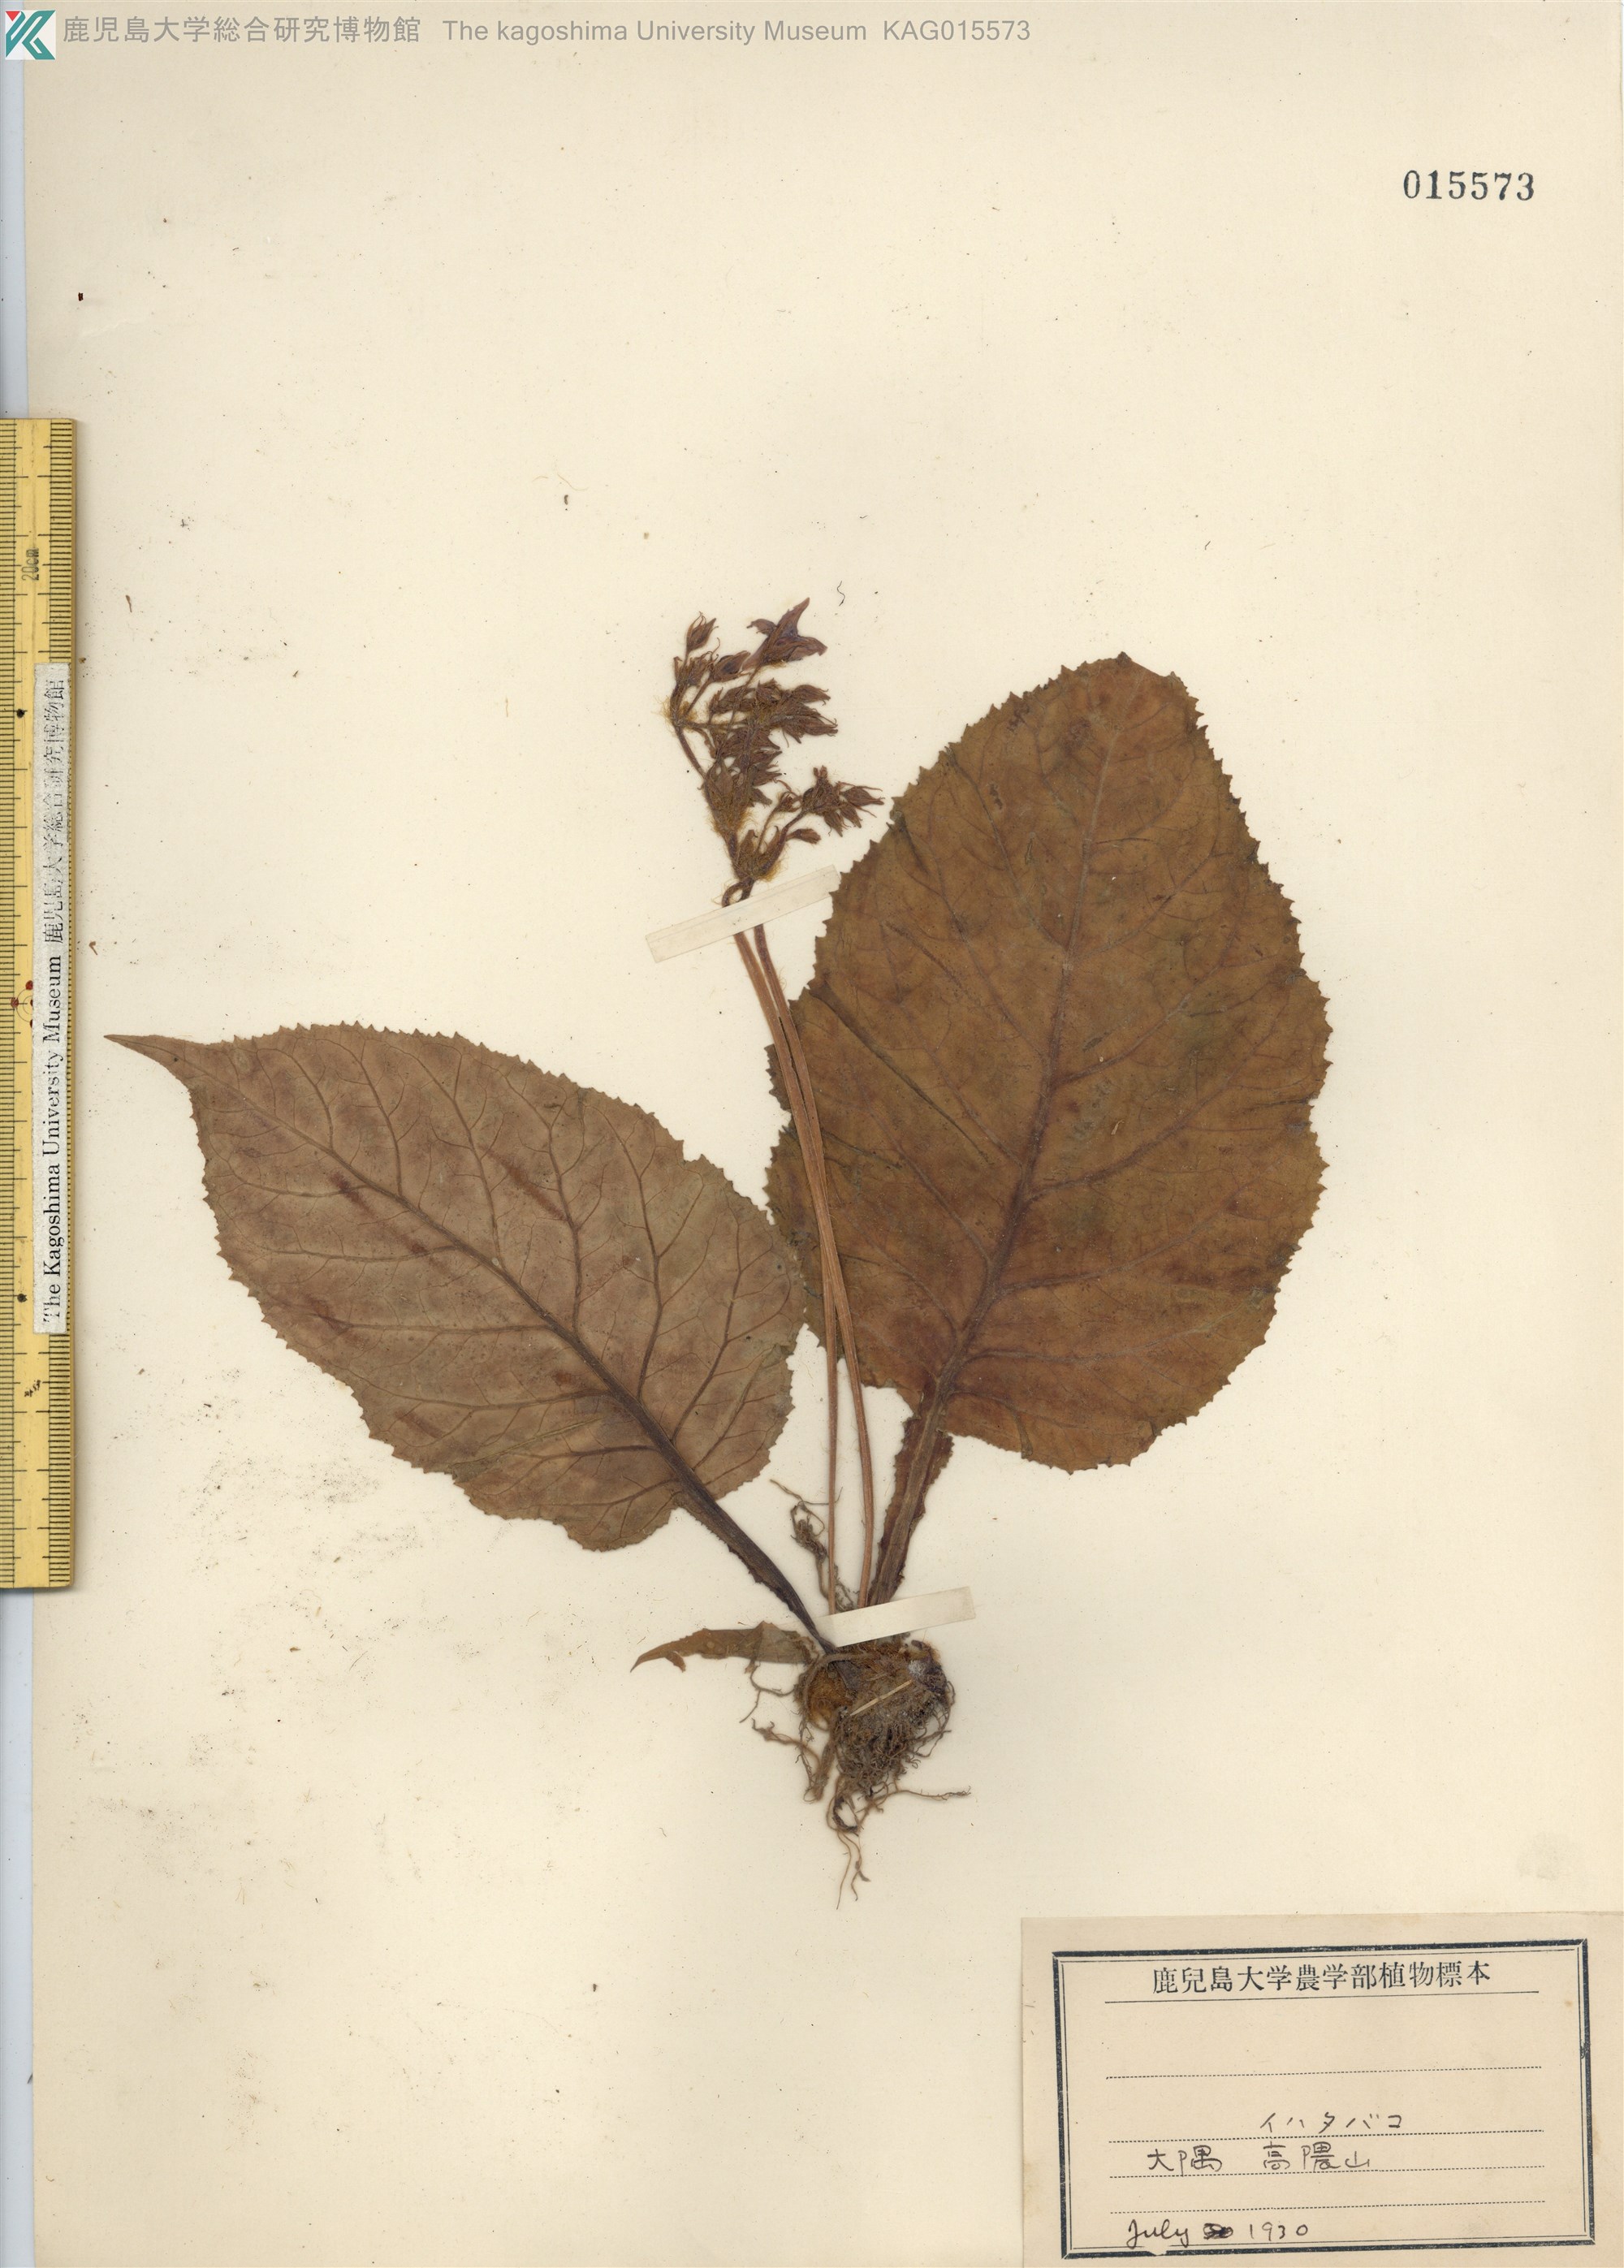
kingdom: Plantae
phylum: Tracheophyta
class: Magnoliopsida
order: Lamiales
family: Gesneriaceae
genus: Conandron
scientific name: Conandron ramondioides
